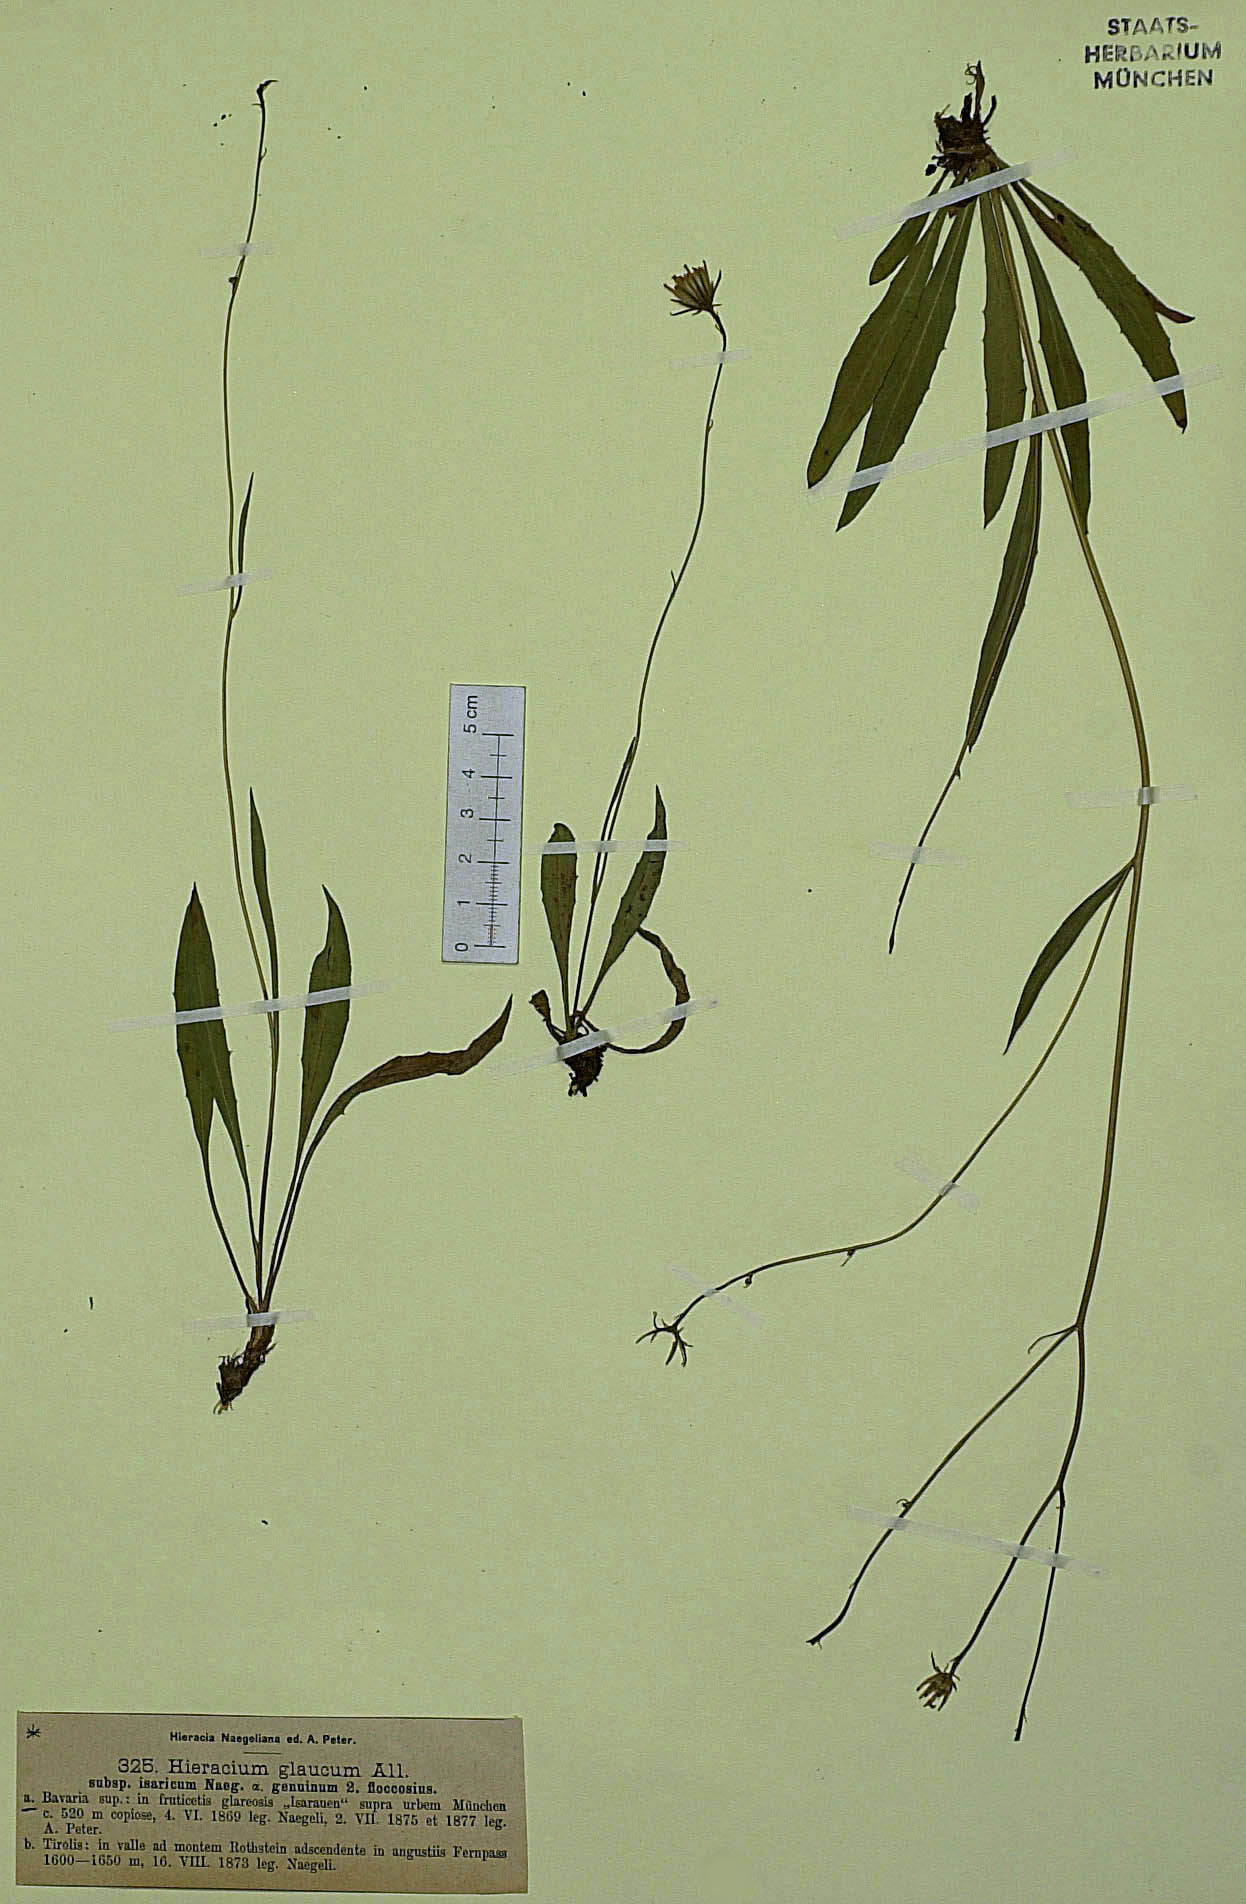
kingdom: Plantae
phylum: Tracheophyta
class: Magnoliopsida
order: Asterales
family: Asteraceae
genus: Hieracium
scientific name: Hieracium glaucum
